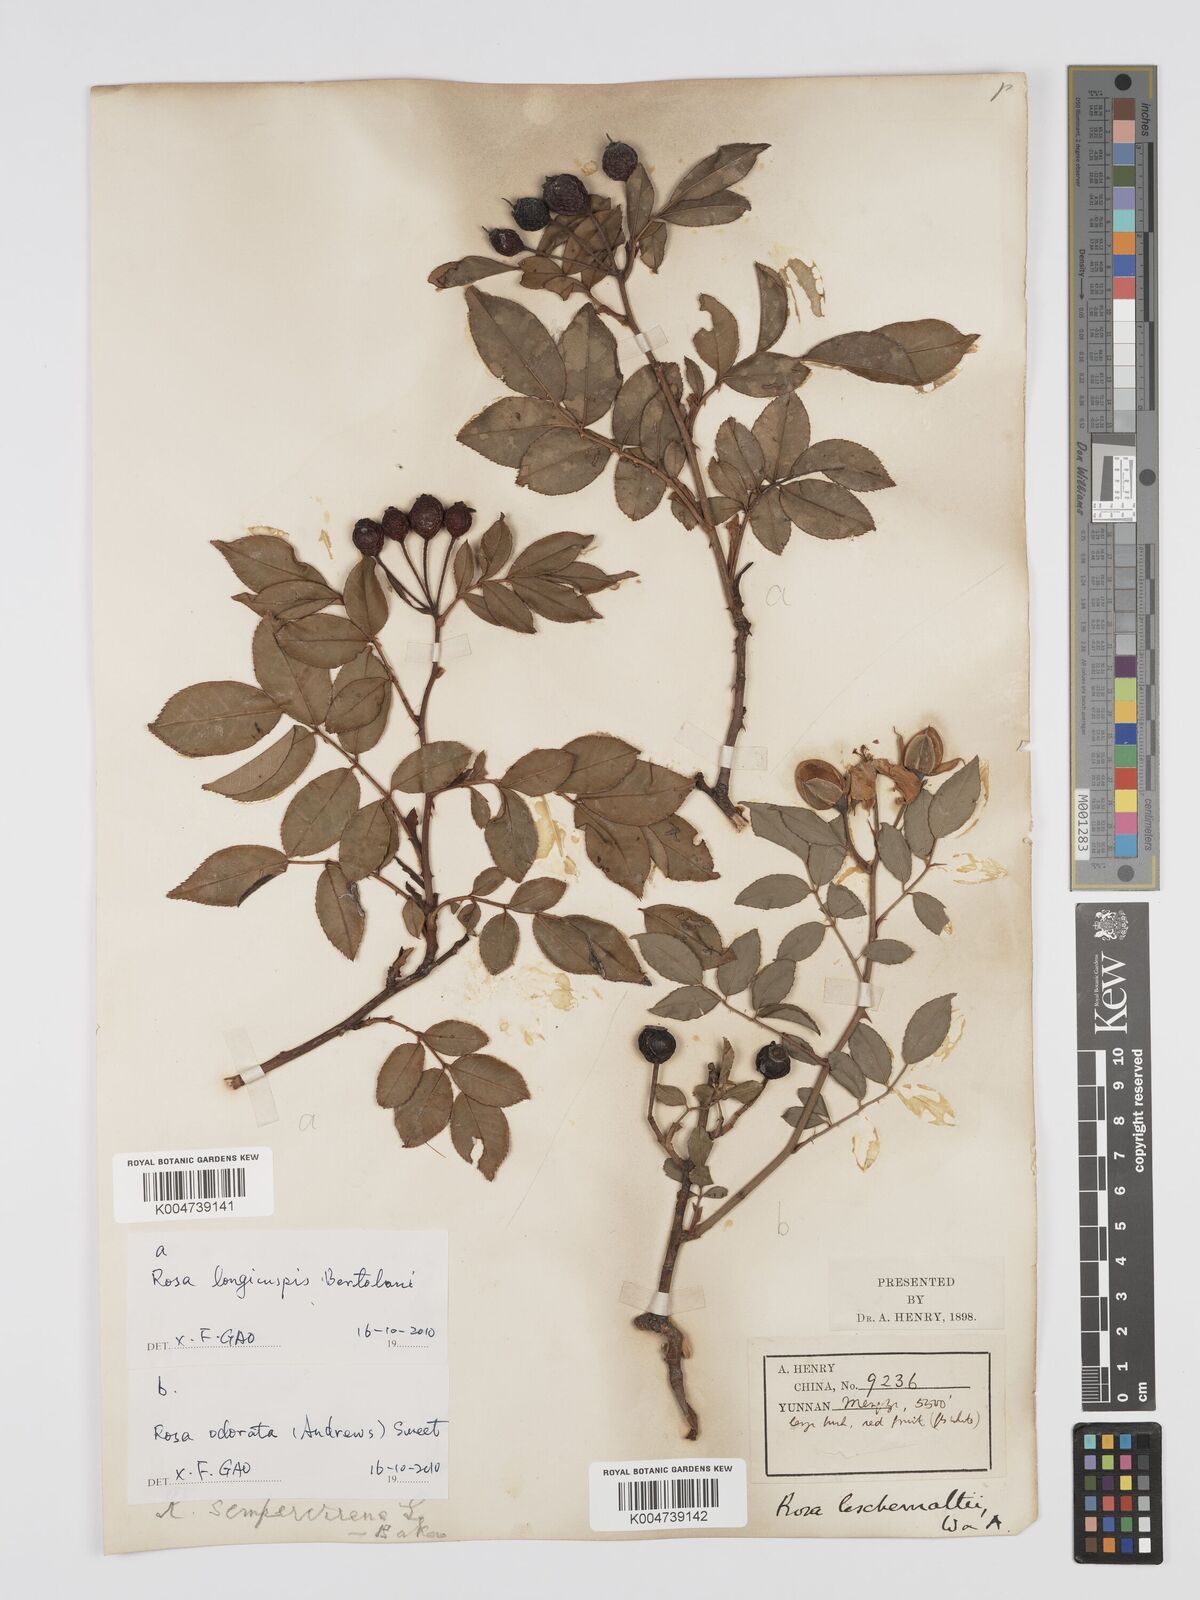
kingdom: Plantae
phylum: Tracheophyta
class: Magnoliopsida
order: Rosales
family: Rosaceae
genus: Rosa
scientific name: Rosa longicuspis
